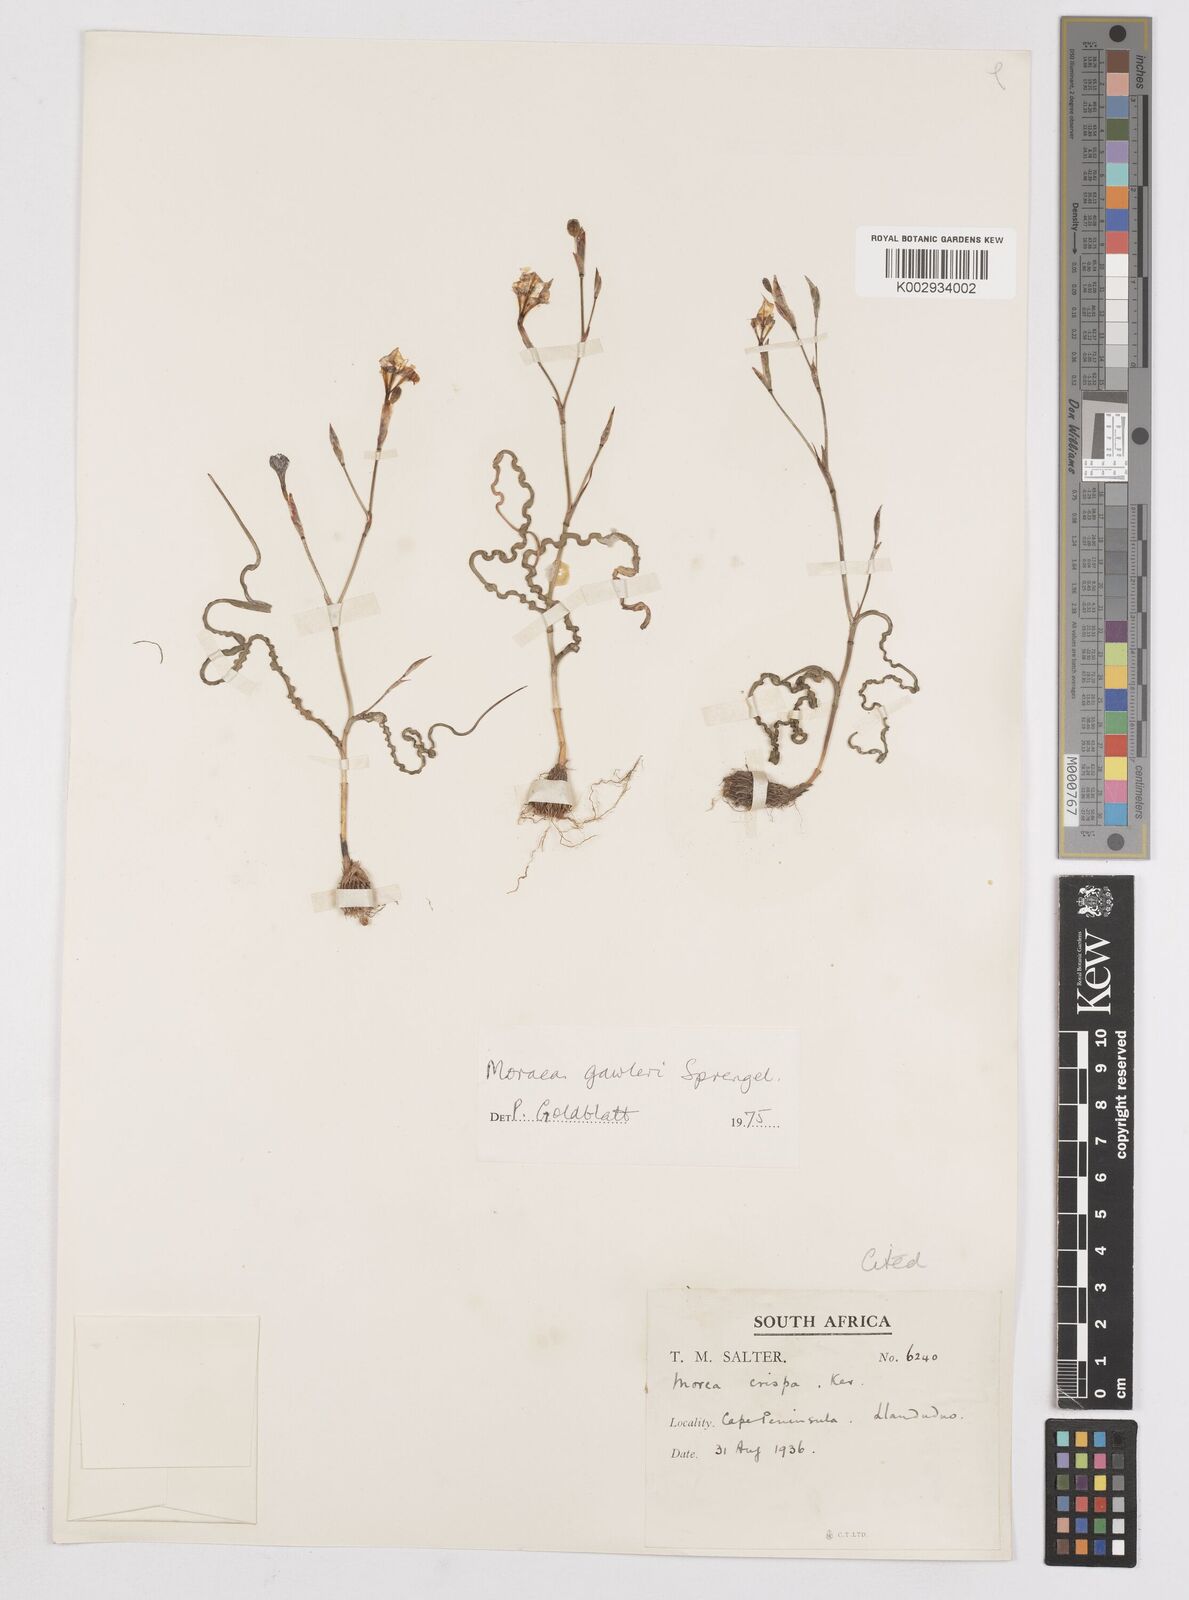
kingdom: Plantae
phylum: Tracheophyta
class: Liliopsida
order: Asparagales
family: Iridaceae
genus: Moraea
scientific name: Moraea gawleri
